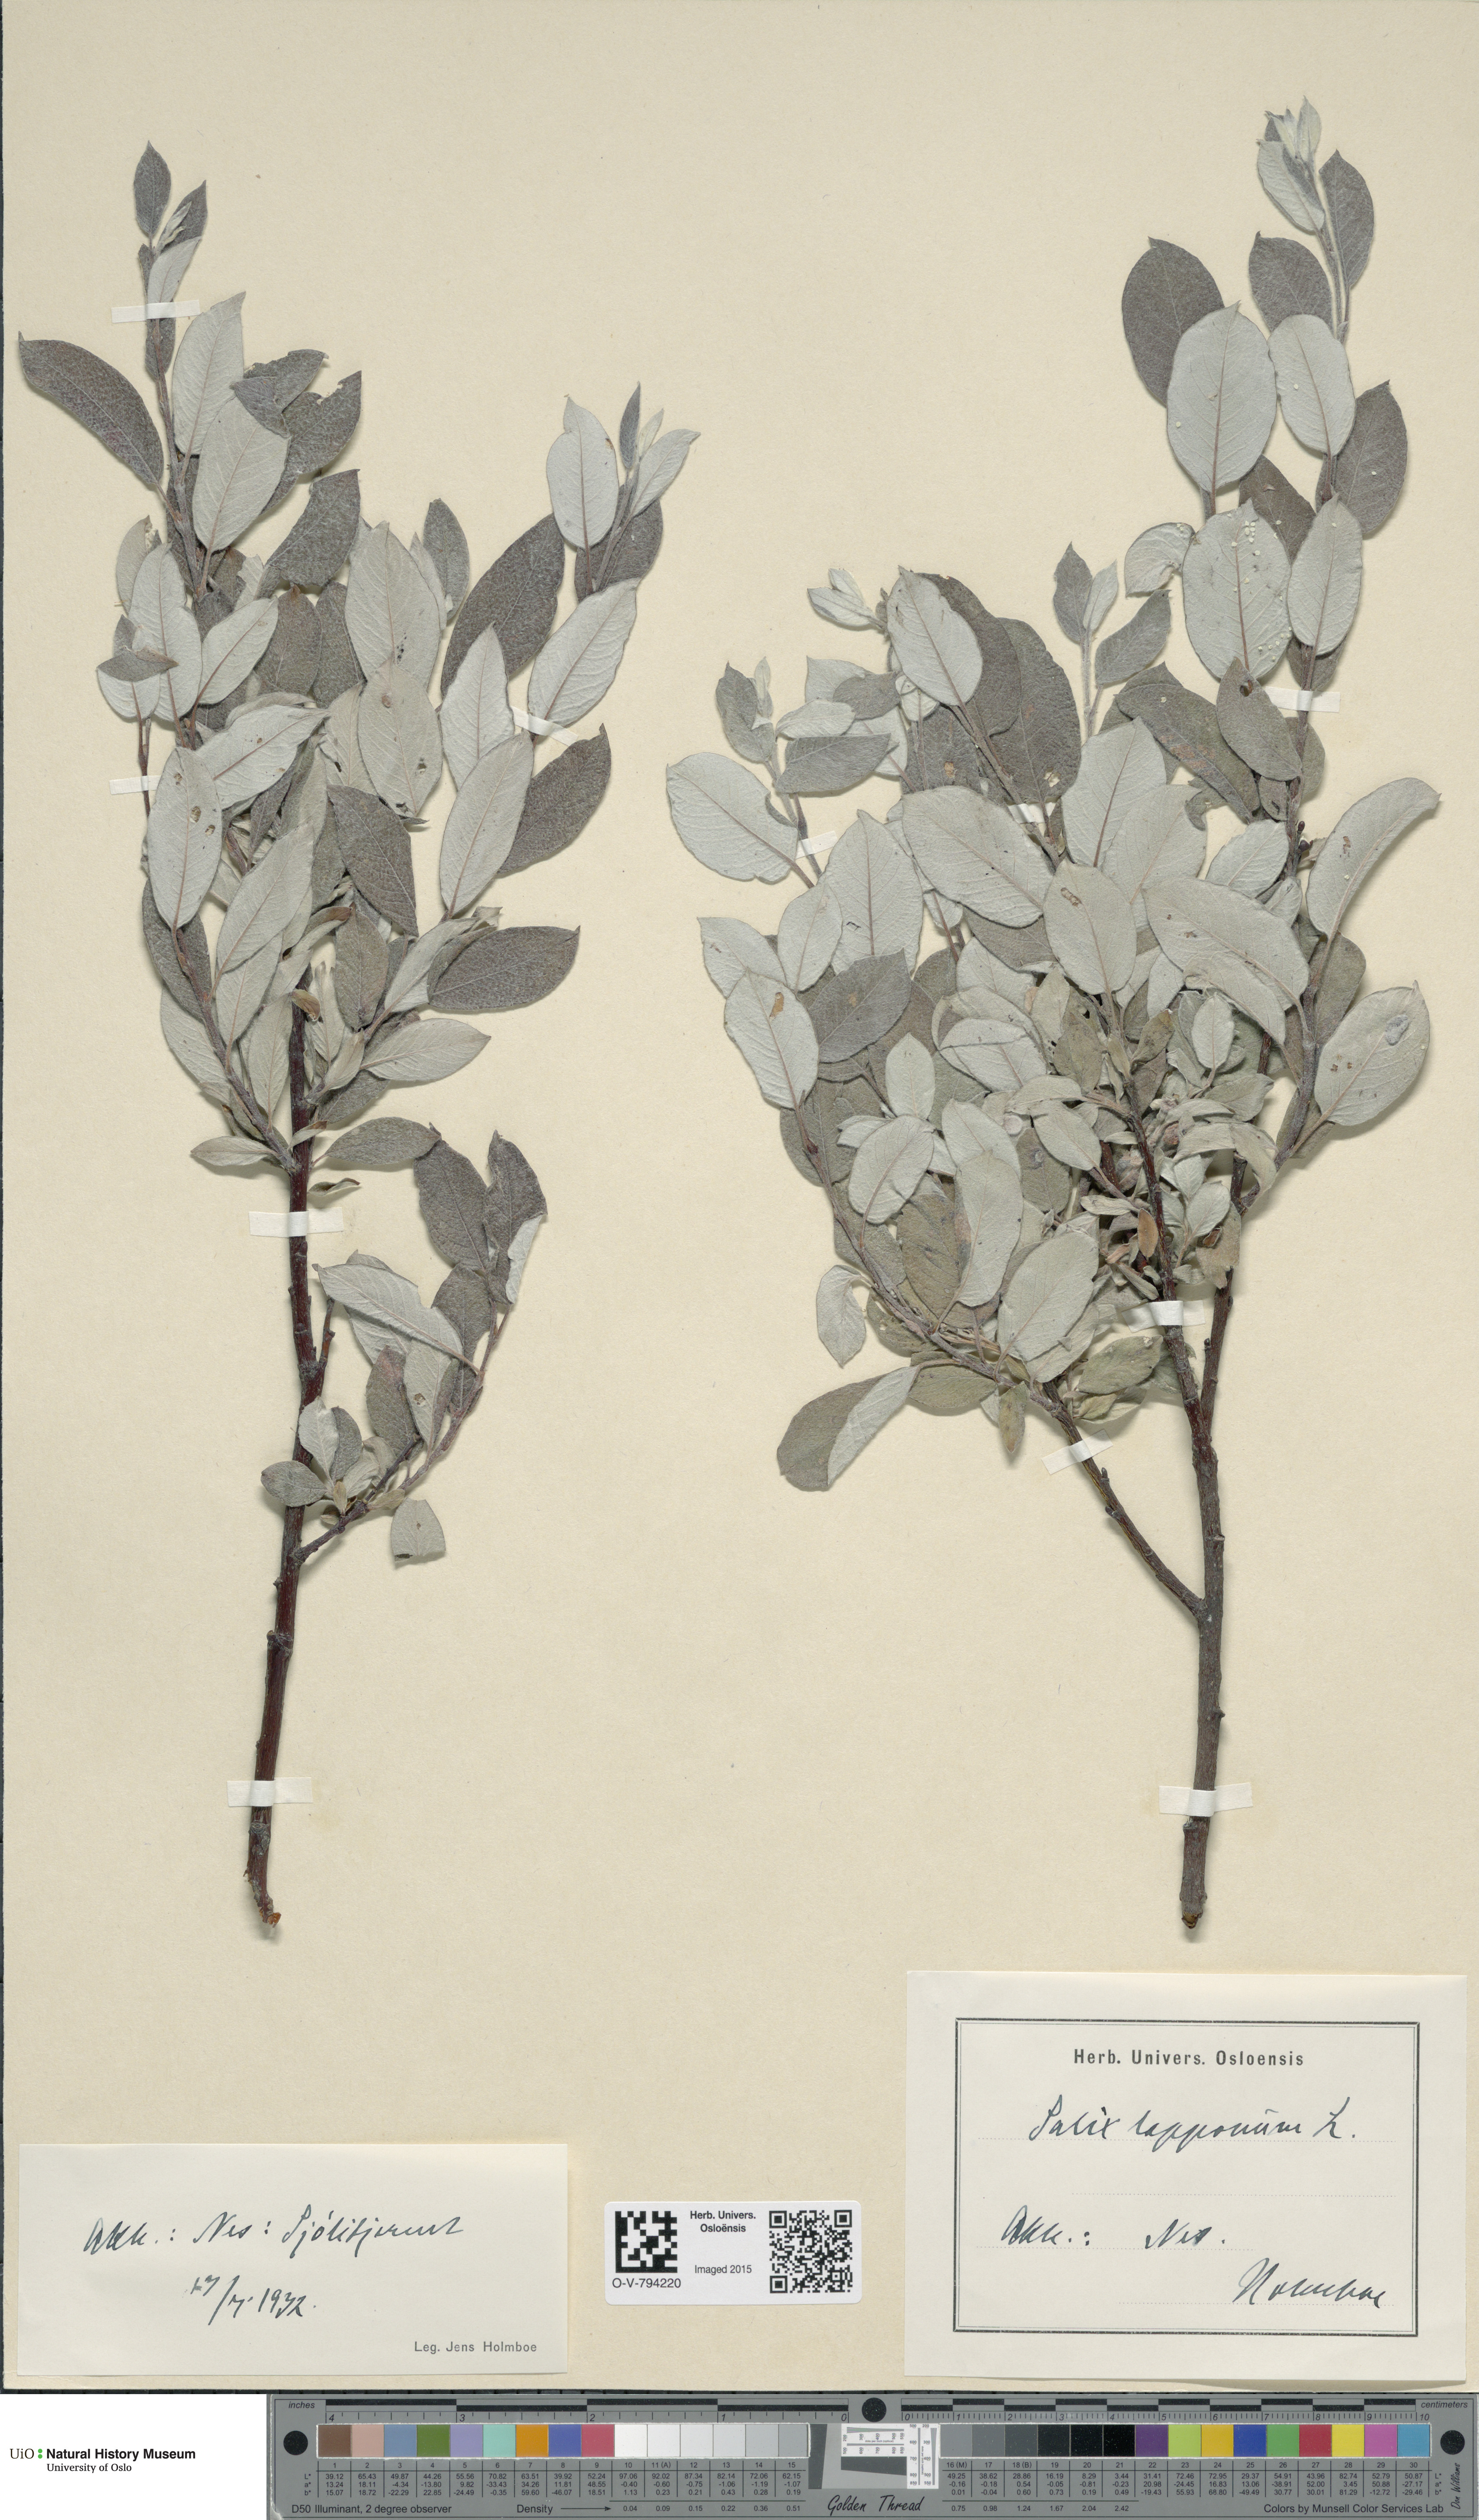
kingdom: Plantae
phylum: Tracheophyta
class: Magnoliopsida
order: Malpighiales
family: Salicaceae
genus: Salix
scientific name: Salix lapponum
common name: Downy willow
